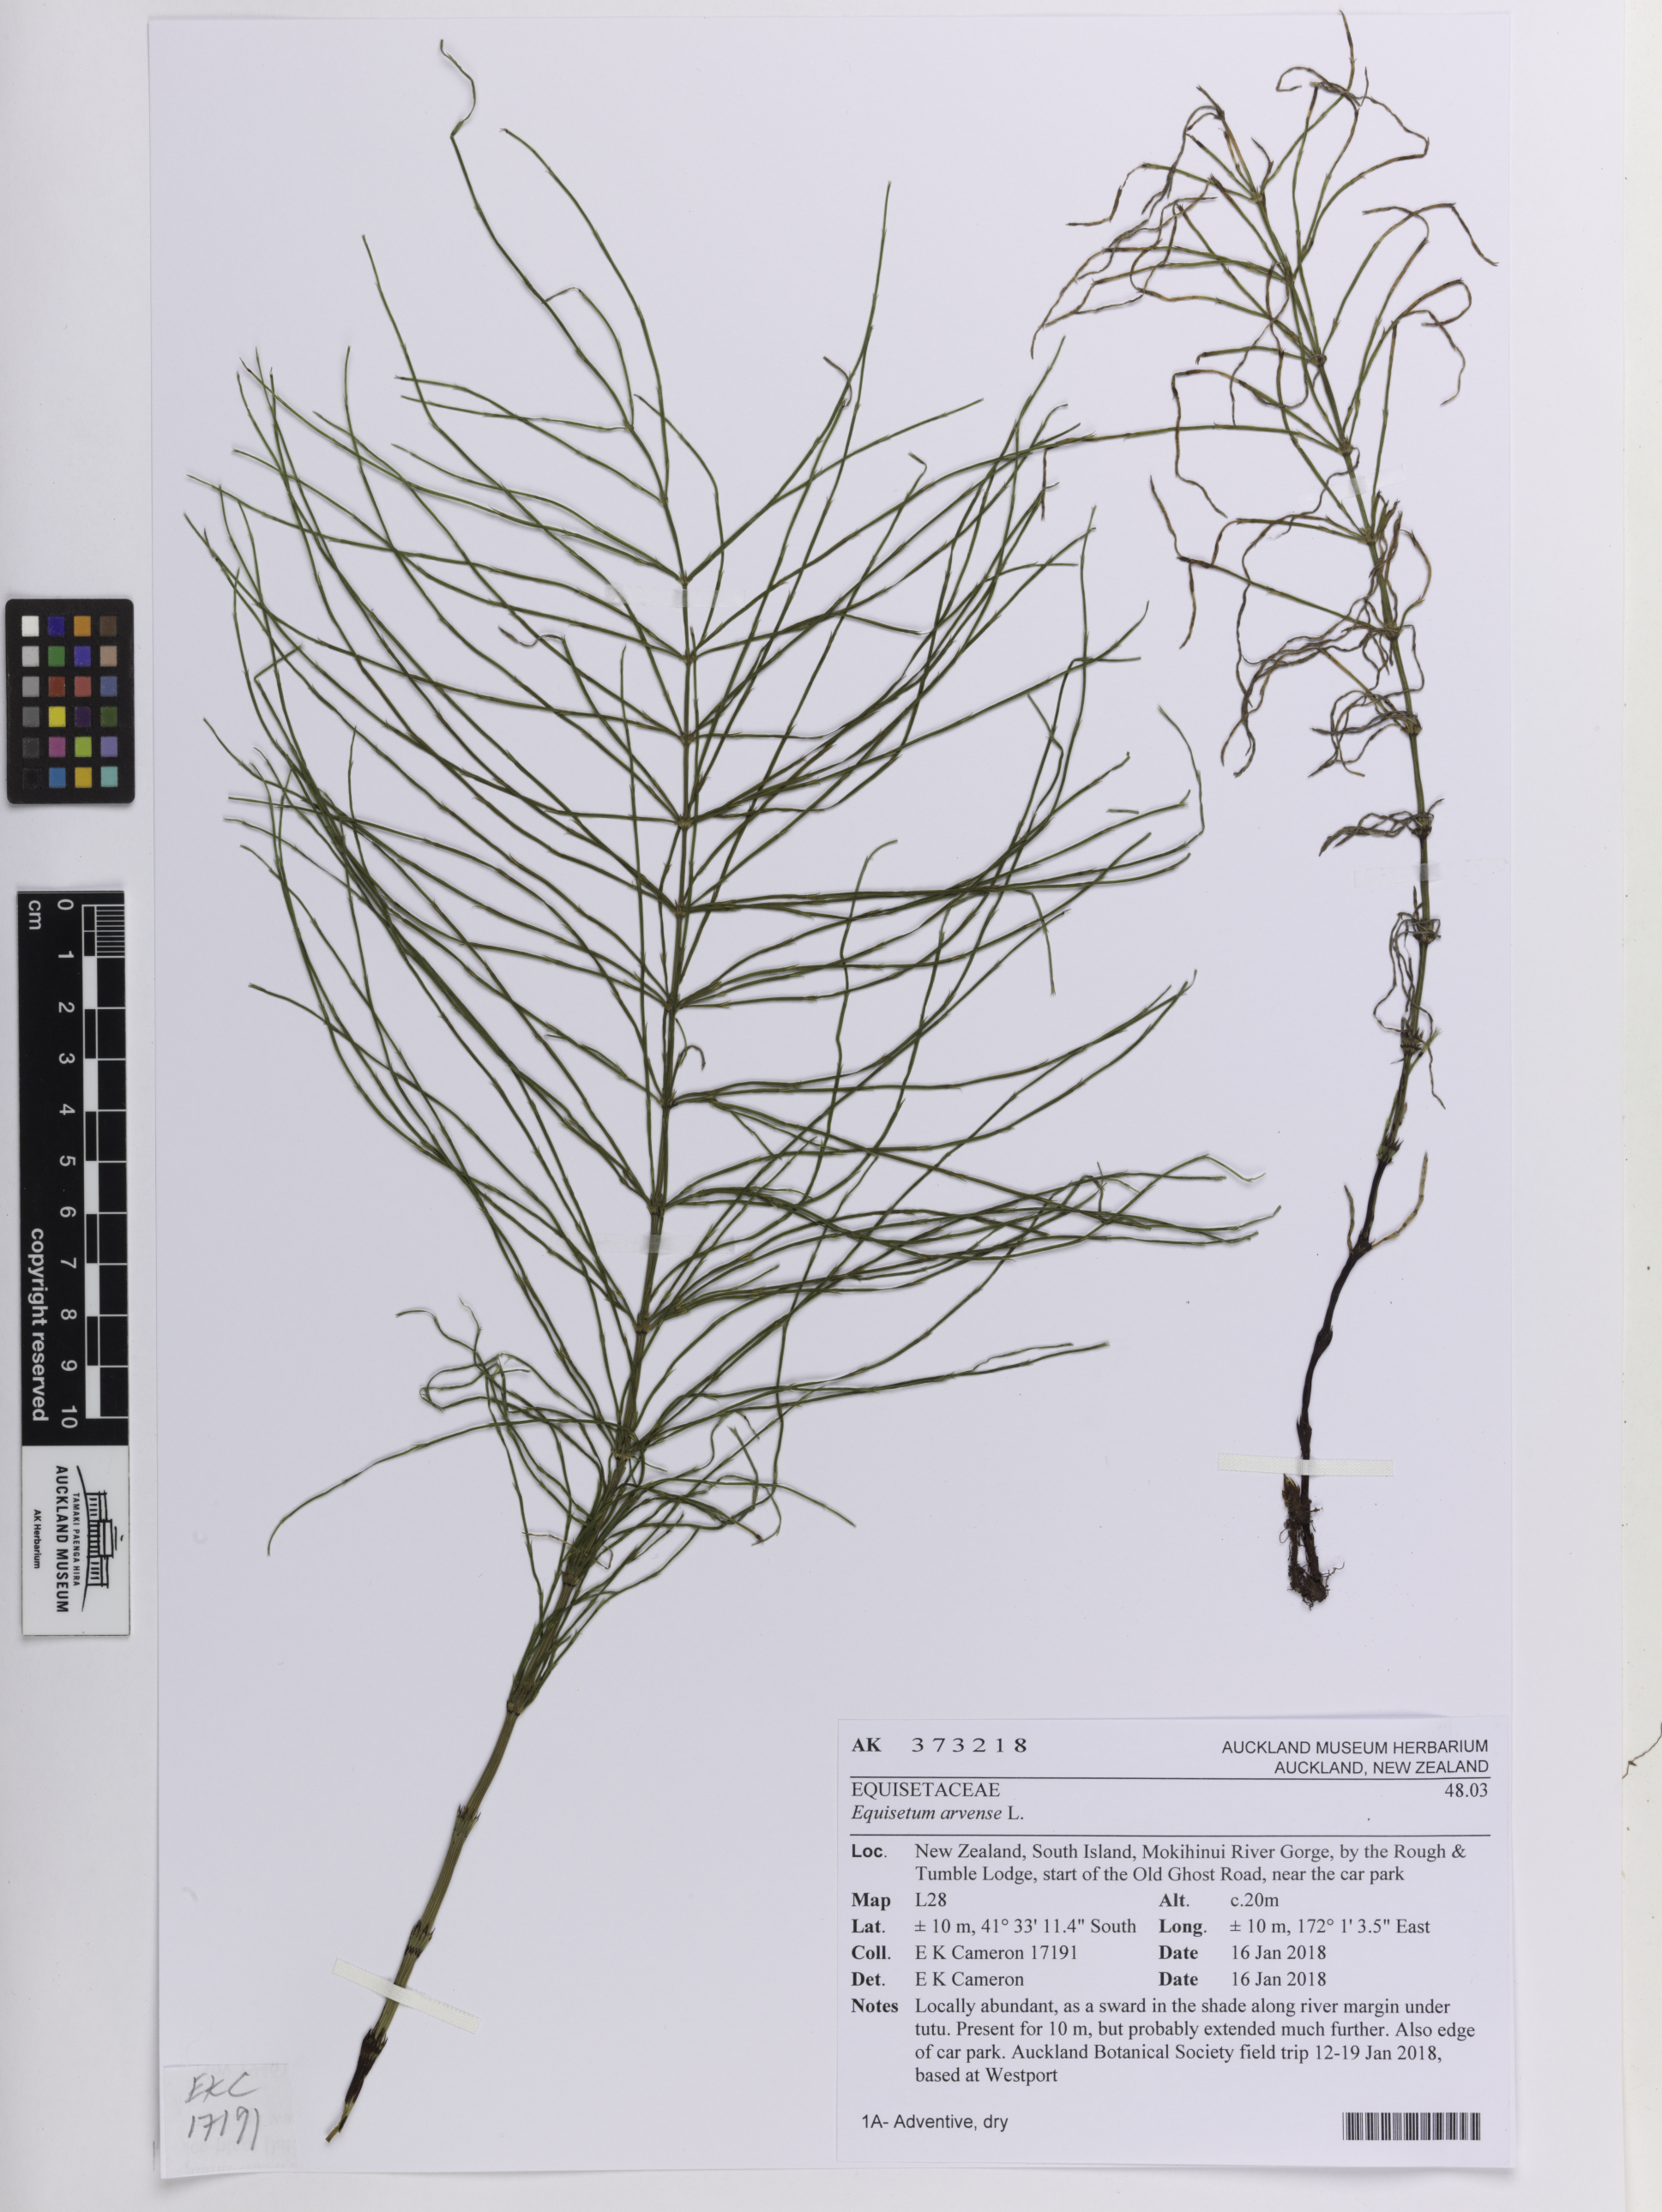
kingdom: Plantae
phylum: Tracheophyta
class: Polypodiopsida
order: Equisetales
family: Equisetaceae
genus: Equisetum
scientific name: Equisetum arvense
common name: Field horsetail
